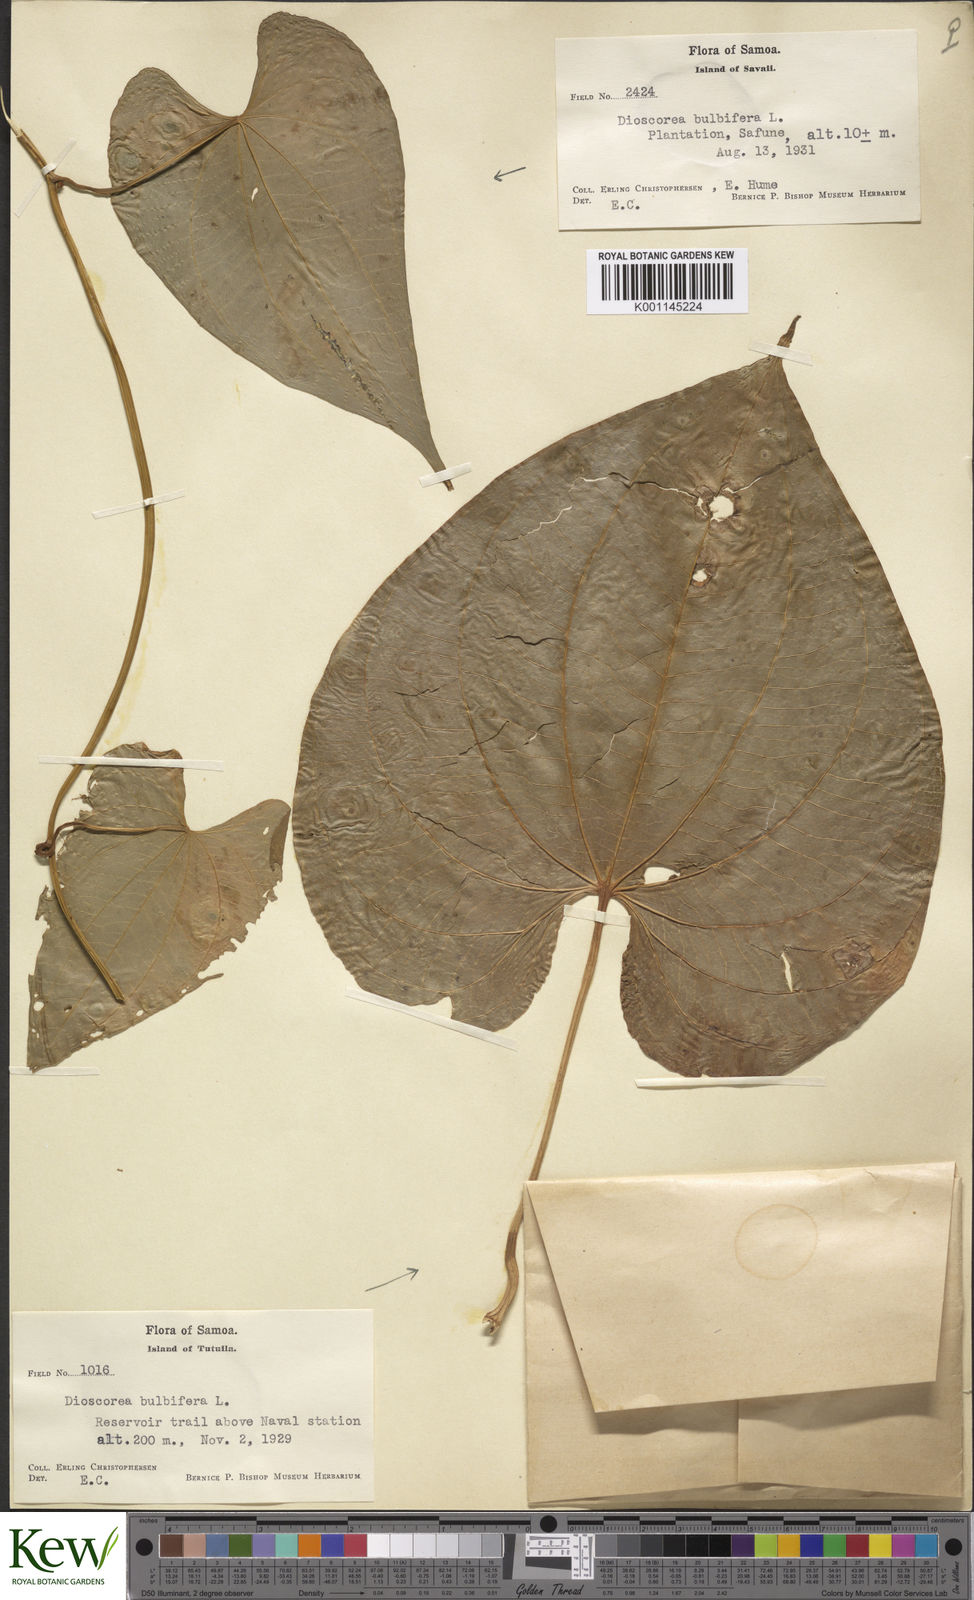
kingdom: Plantae
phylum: Tracheophyta
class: Liliopsida
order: Dioscoreales
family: Dioscoreaceae
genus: Dioscorea
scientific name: Dioscorea bulbifera
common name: Air yam
